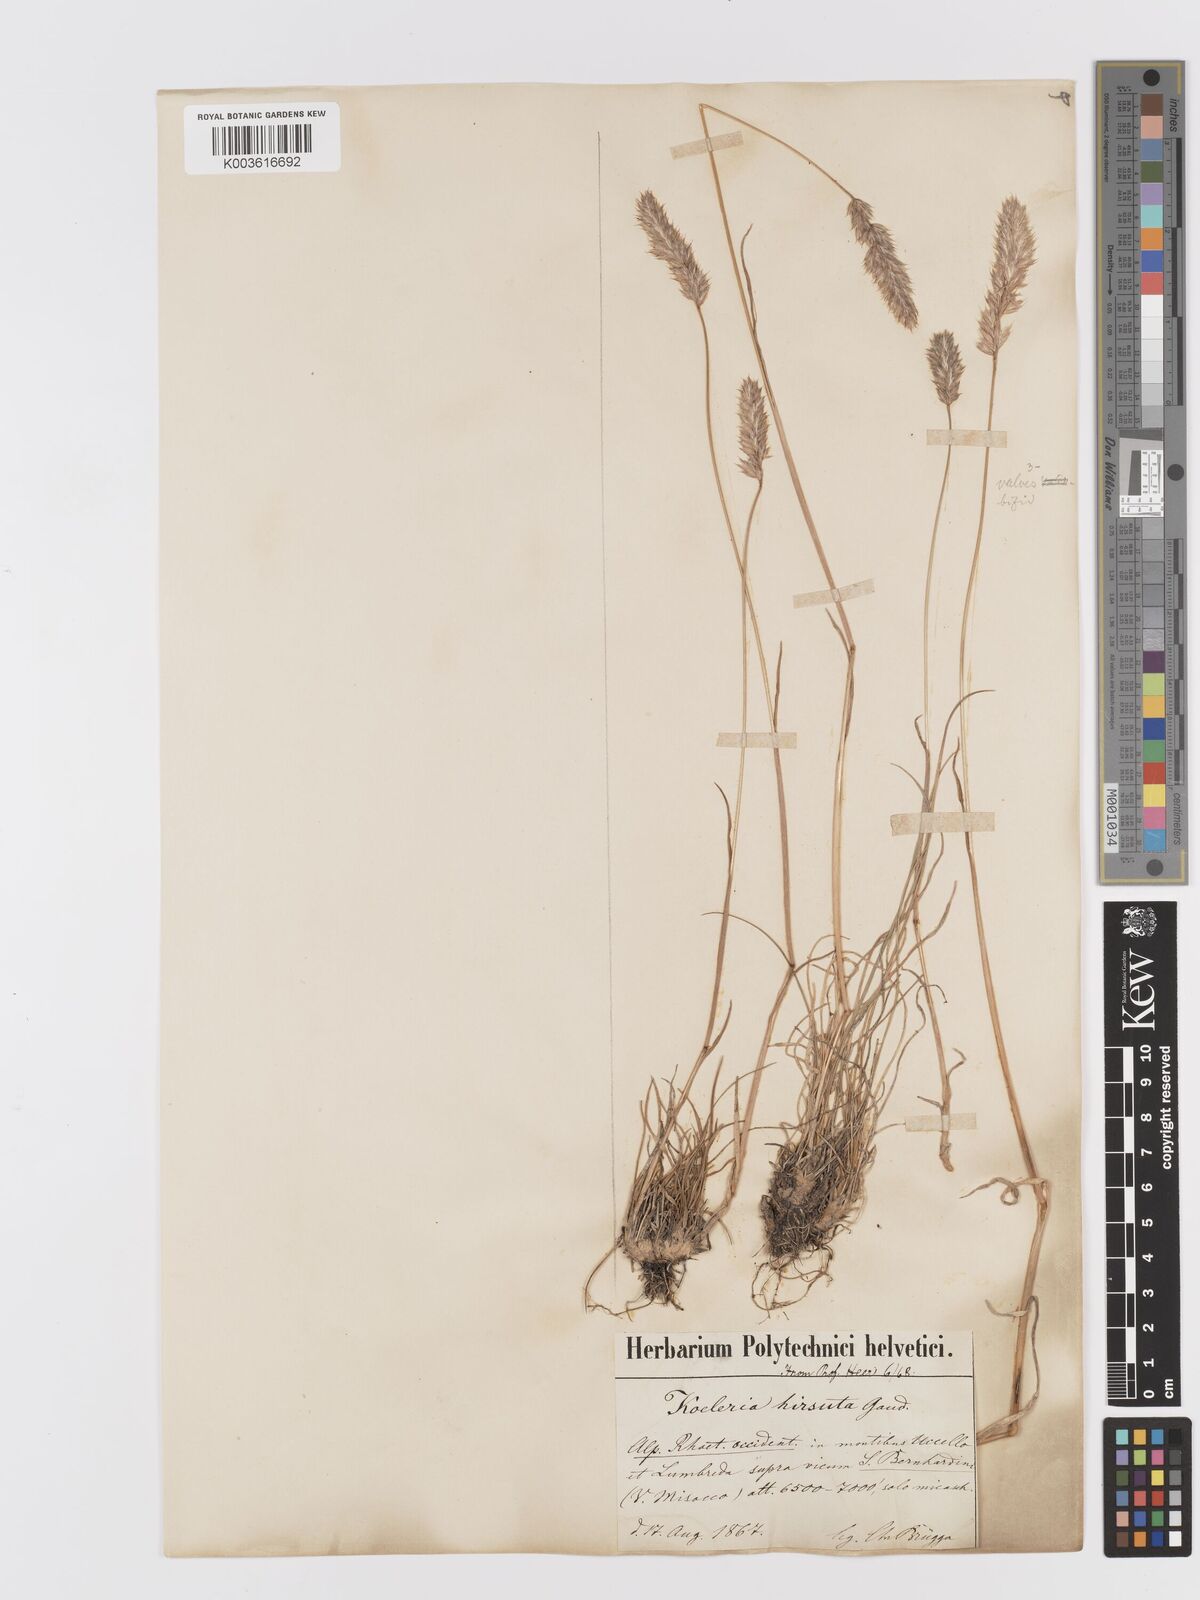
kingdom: Plantae
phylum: Tracheophyta
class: Liliopsida
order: Poales
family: Poaceae
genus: Koeleria
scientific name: Koeleria hirsuta
